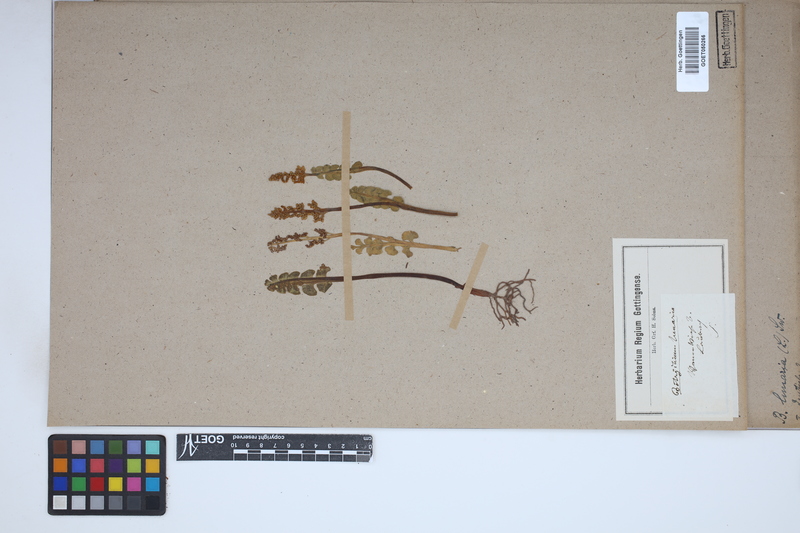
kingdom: Plantae
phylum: Tracheophyta
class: Polypodiopsida
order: Ophioglossales
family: Ophioglossaceae
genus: Botrychium
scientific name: Botrychium lunaria
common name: Moonwort
